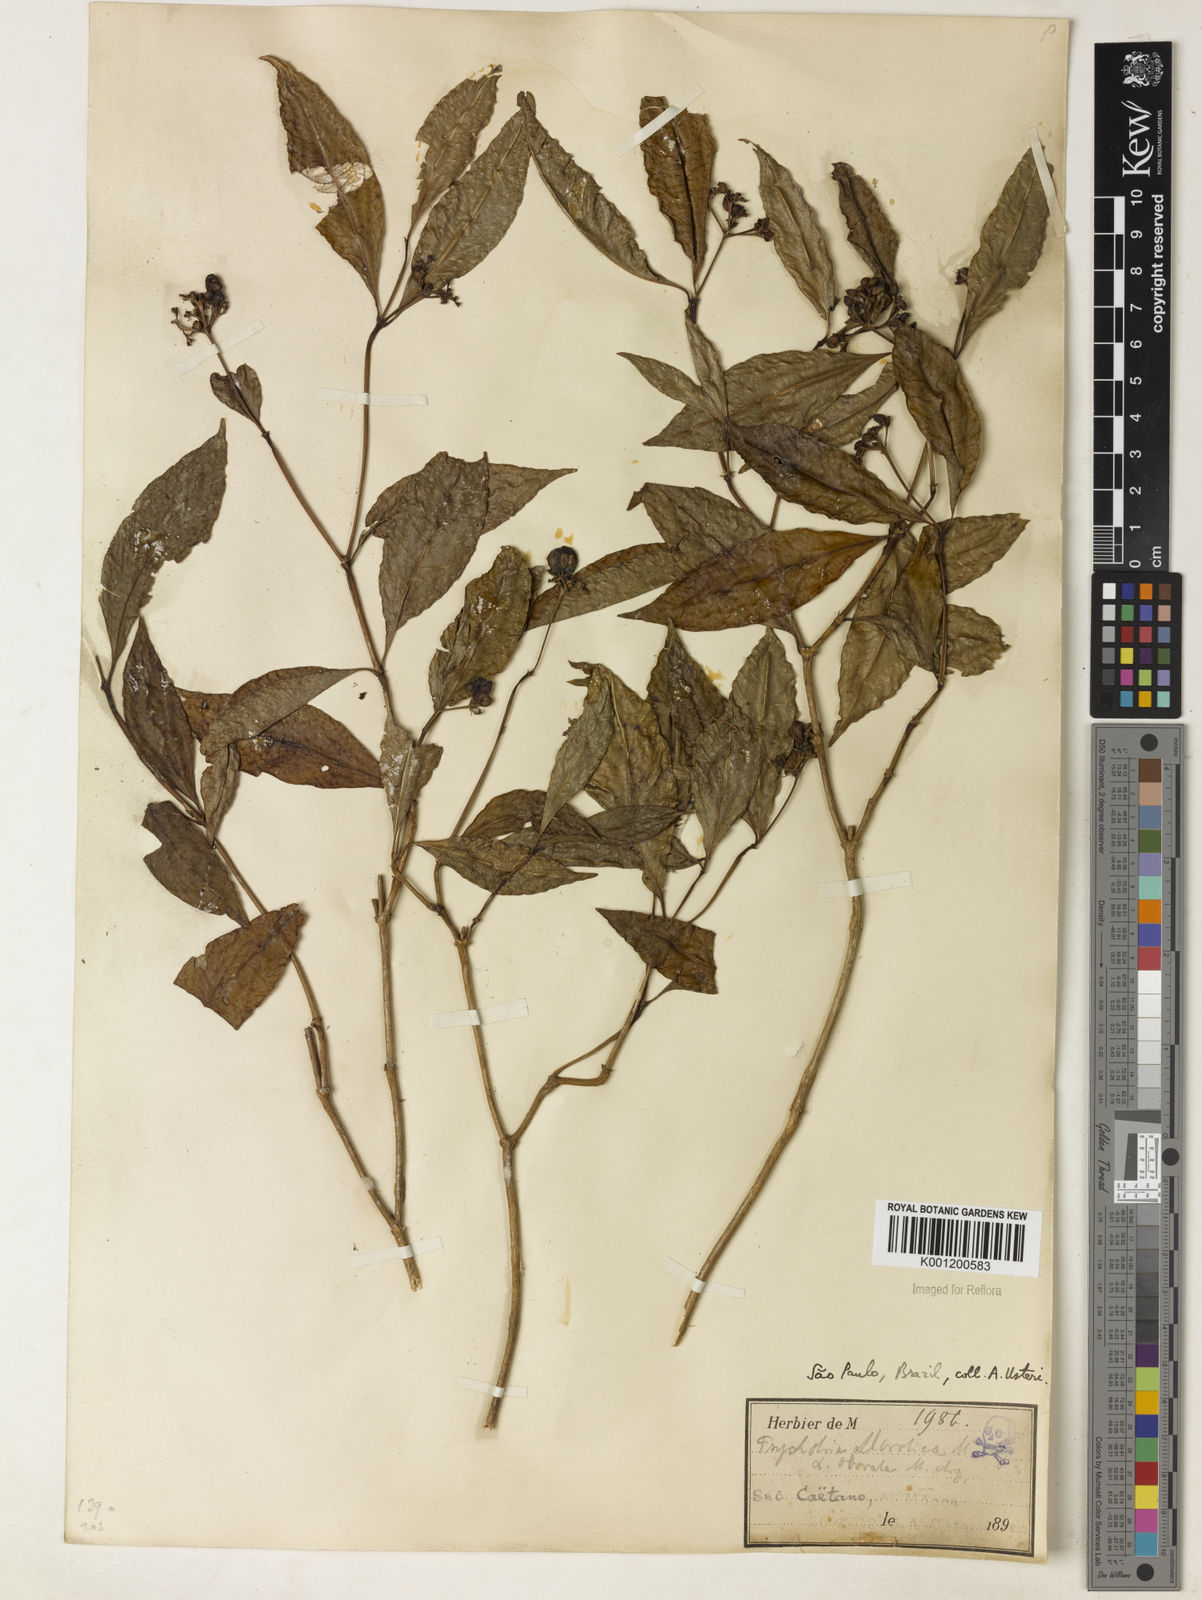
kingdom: Plantae
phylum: Tracheophyta
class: Magnoliopsida
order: Gentianales
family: Rubiaceae
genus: Psychotria
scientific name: Psychotria
